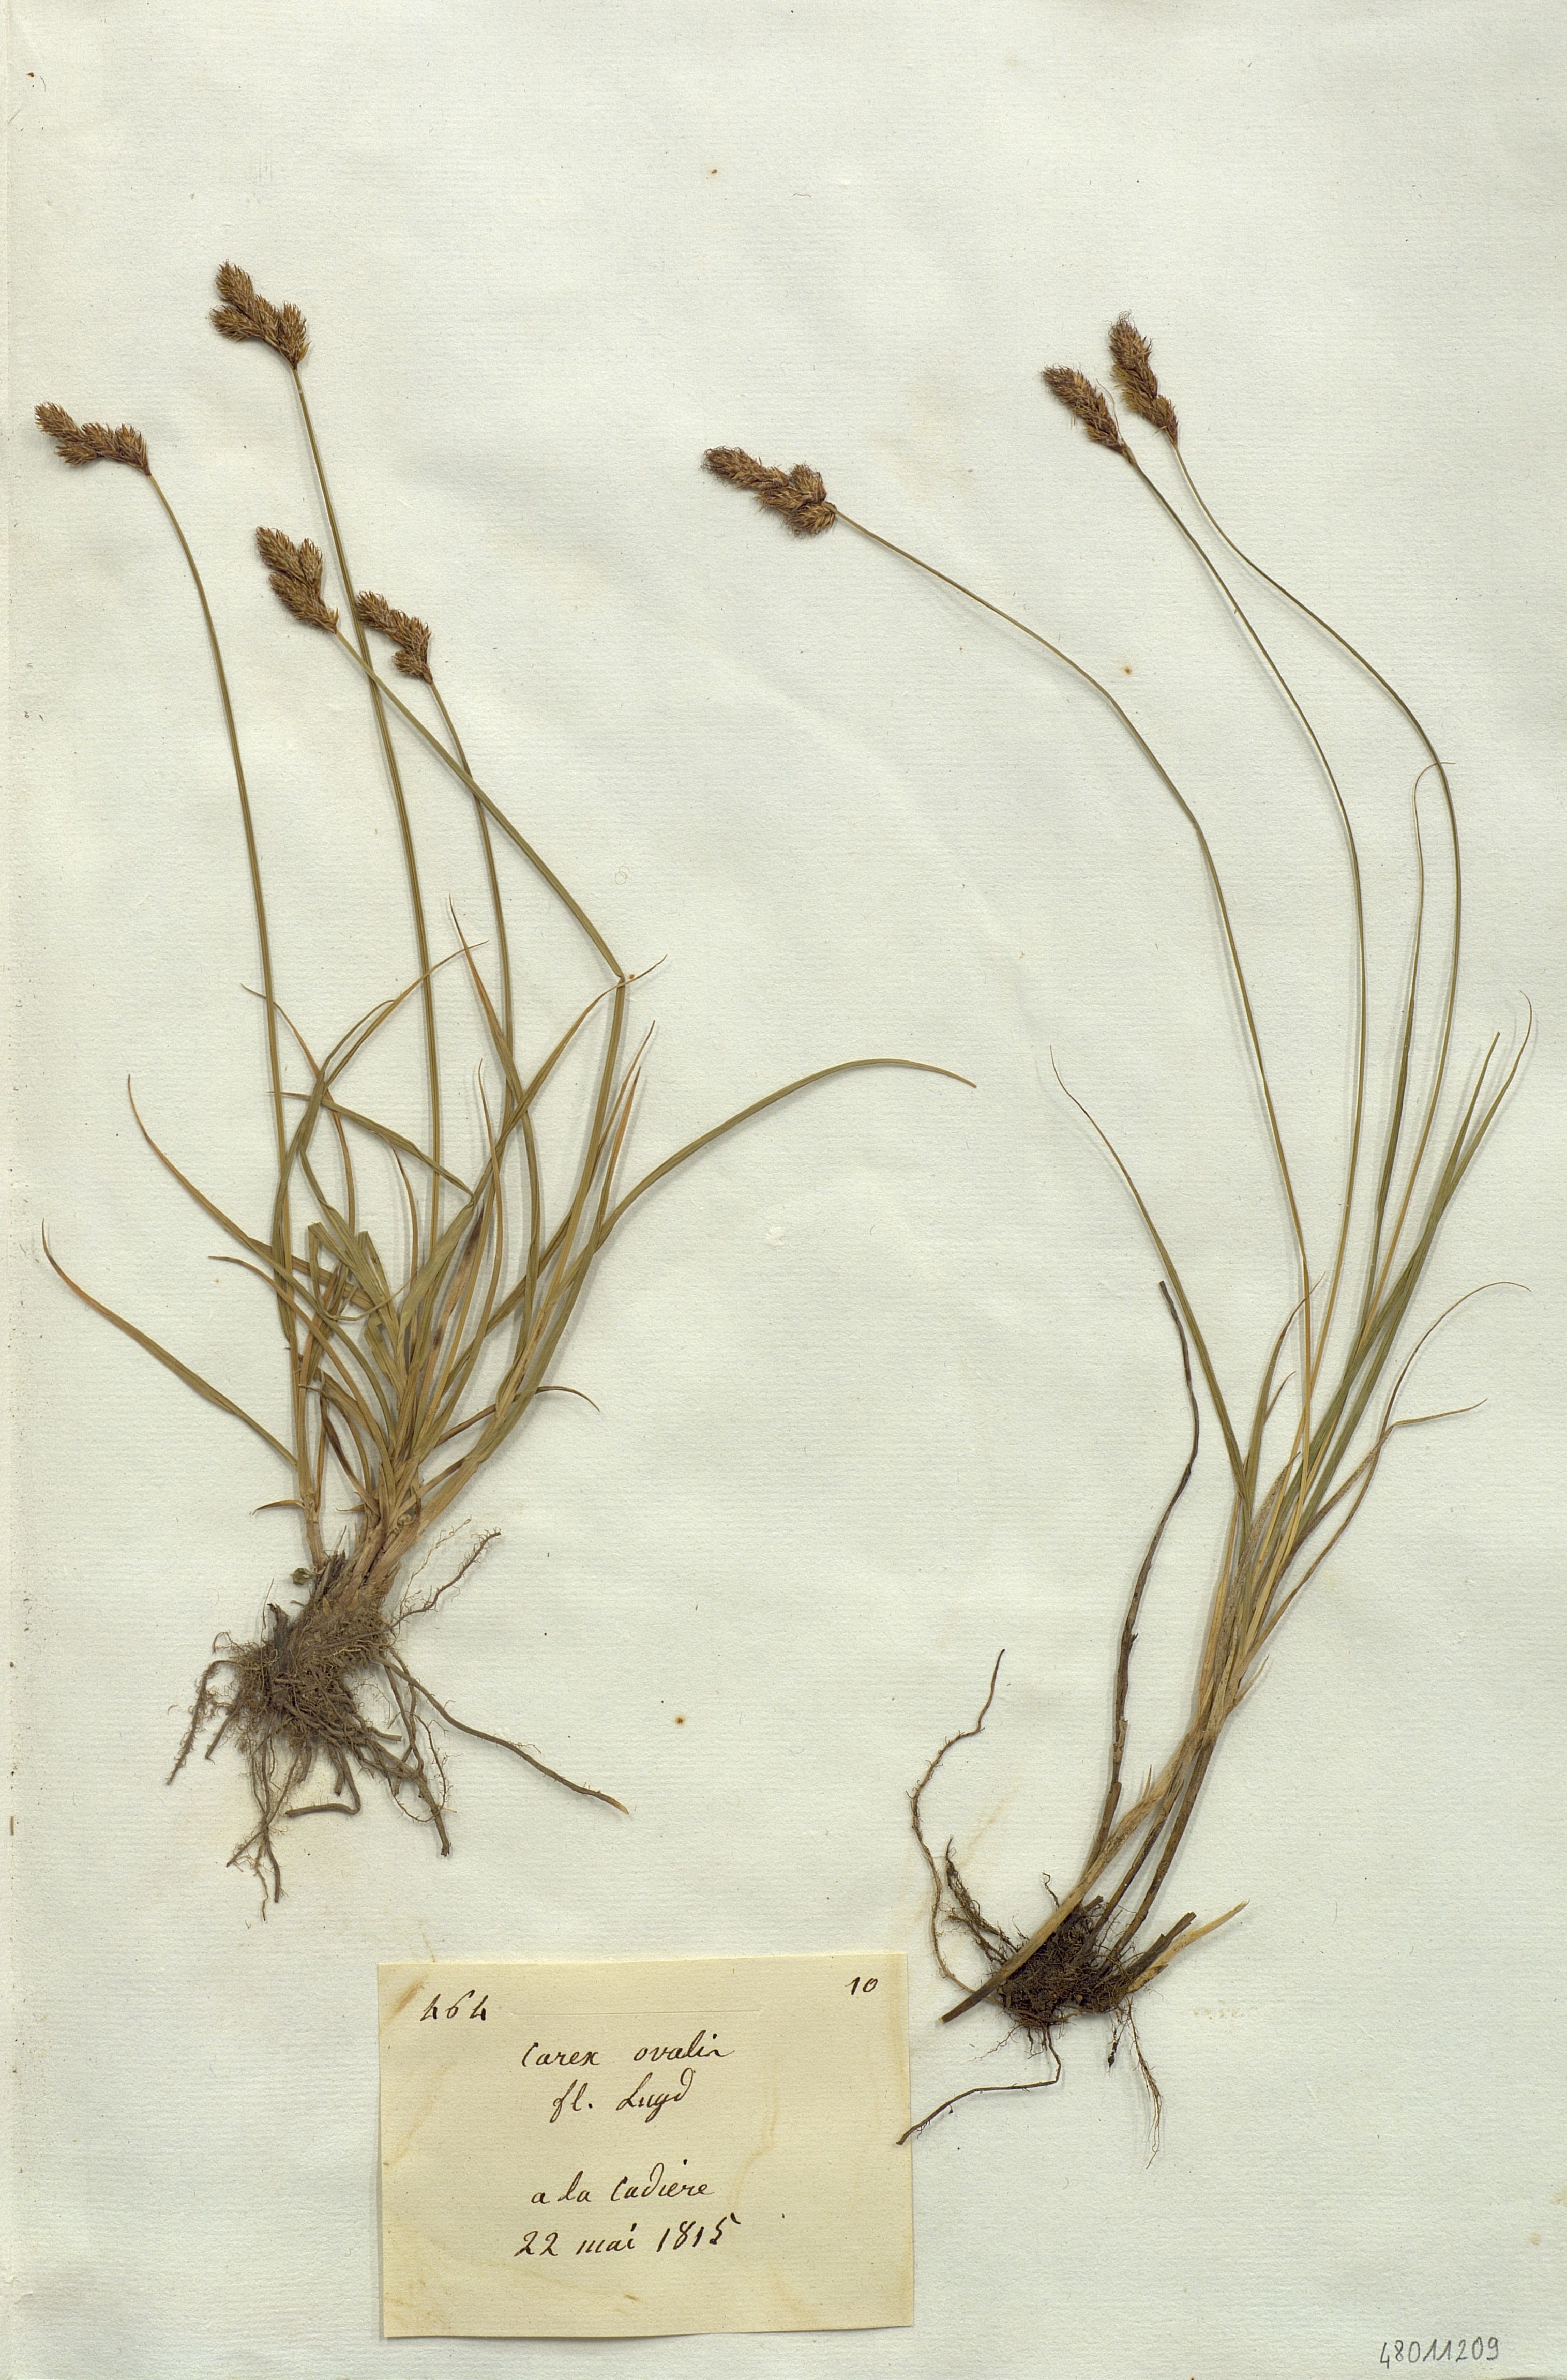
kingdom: Plantae
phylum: Tracheophyta
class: Liliopsida
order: Poales
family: Cyperaceae
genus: Carex
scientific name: Carex
